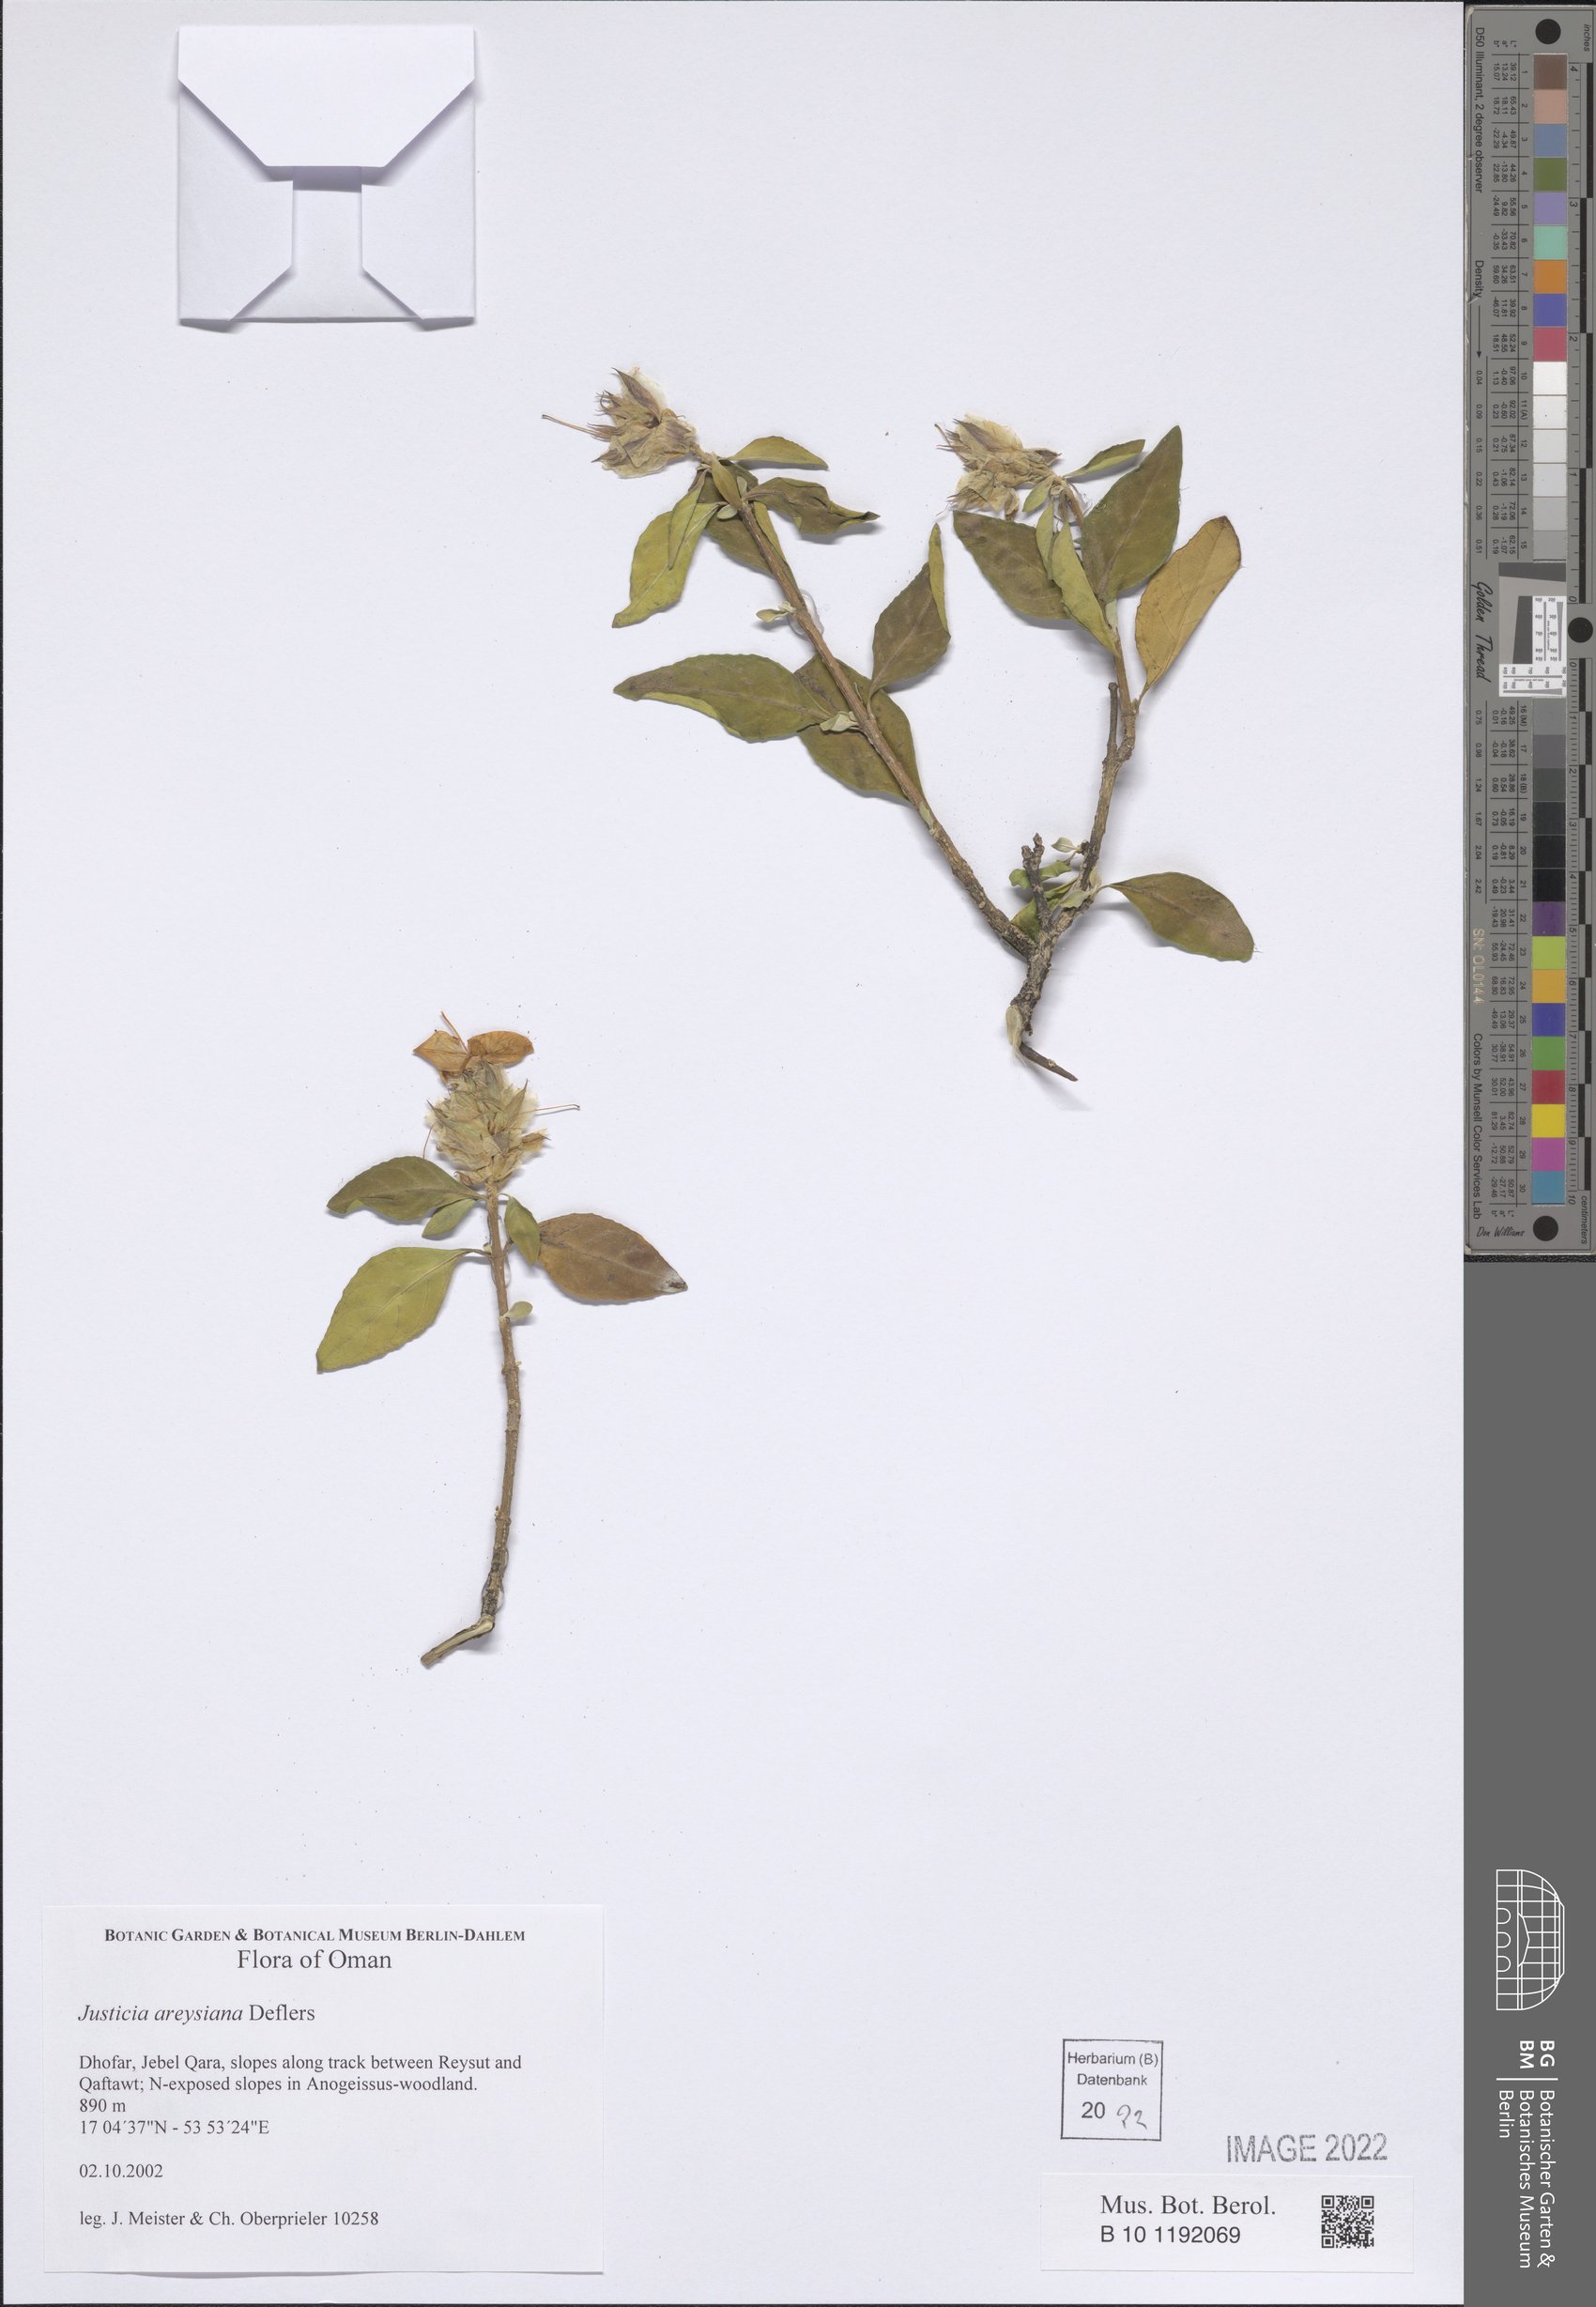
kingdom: Plantae
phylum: Tracheophyta
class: Magnoliopsida
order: Lamiales
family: Acanthaceae
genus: Justicia
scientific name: Justicia areysiana
